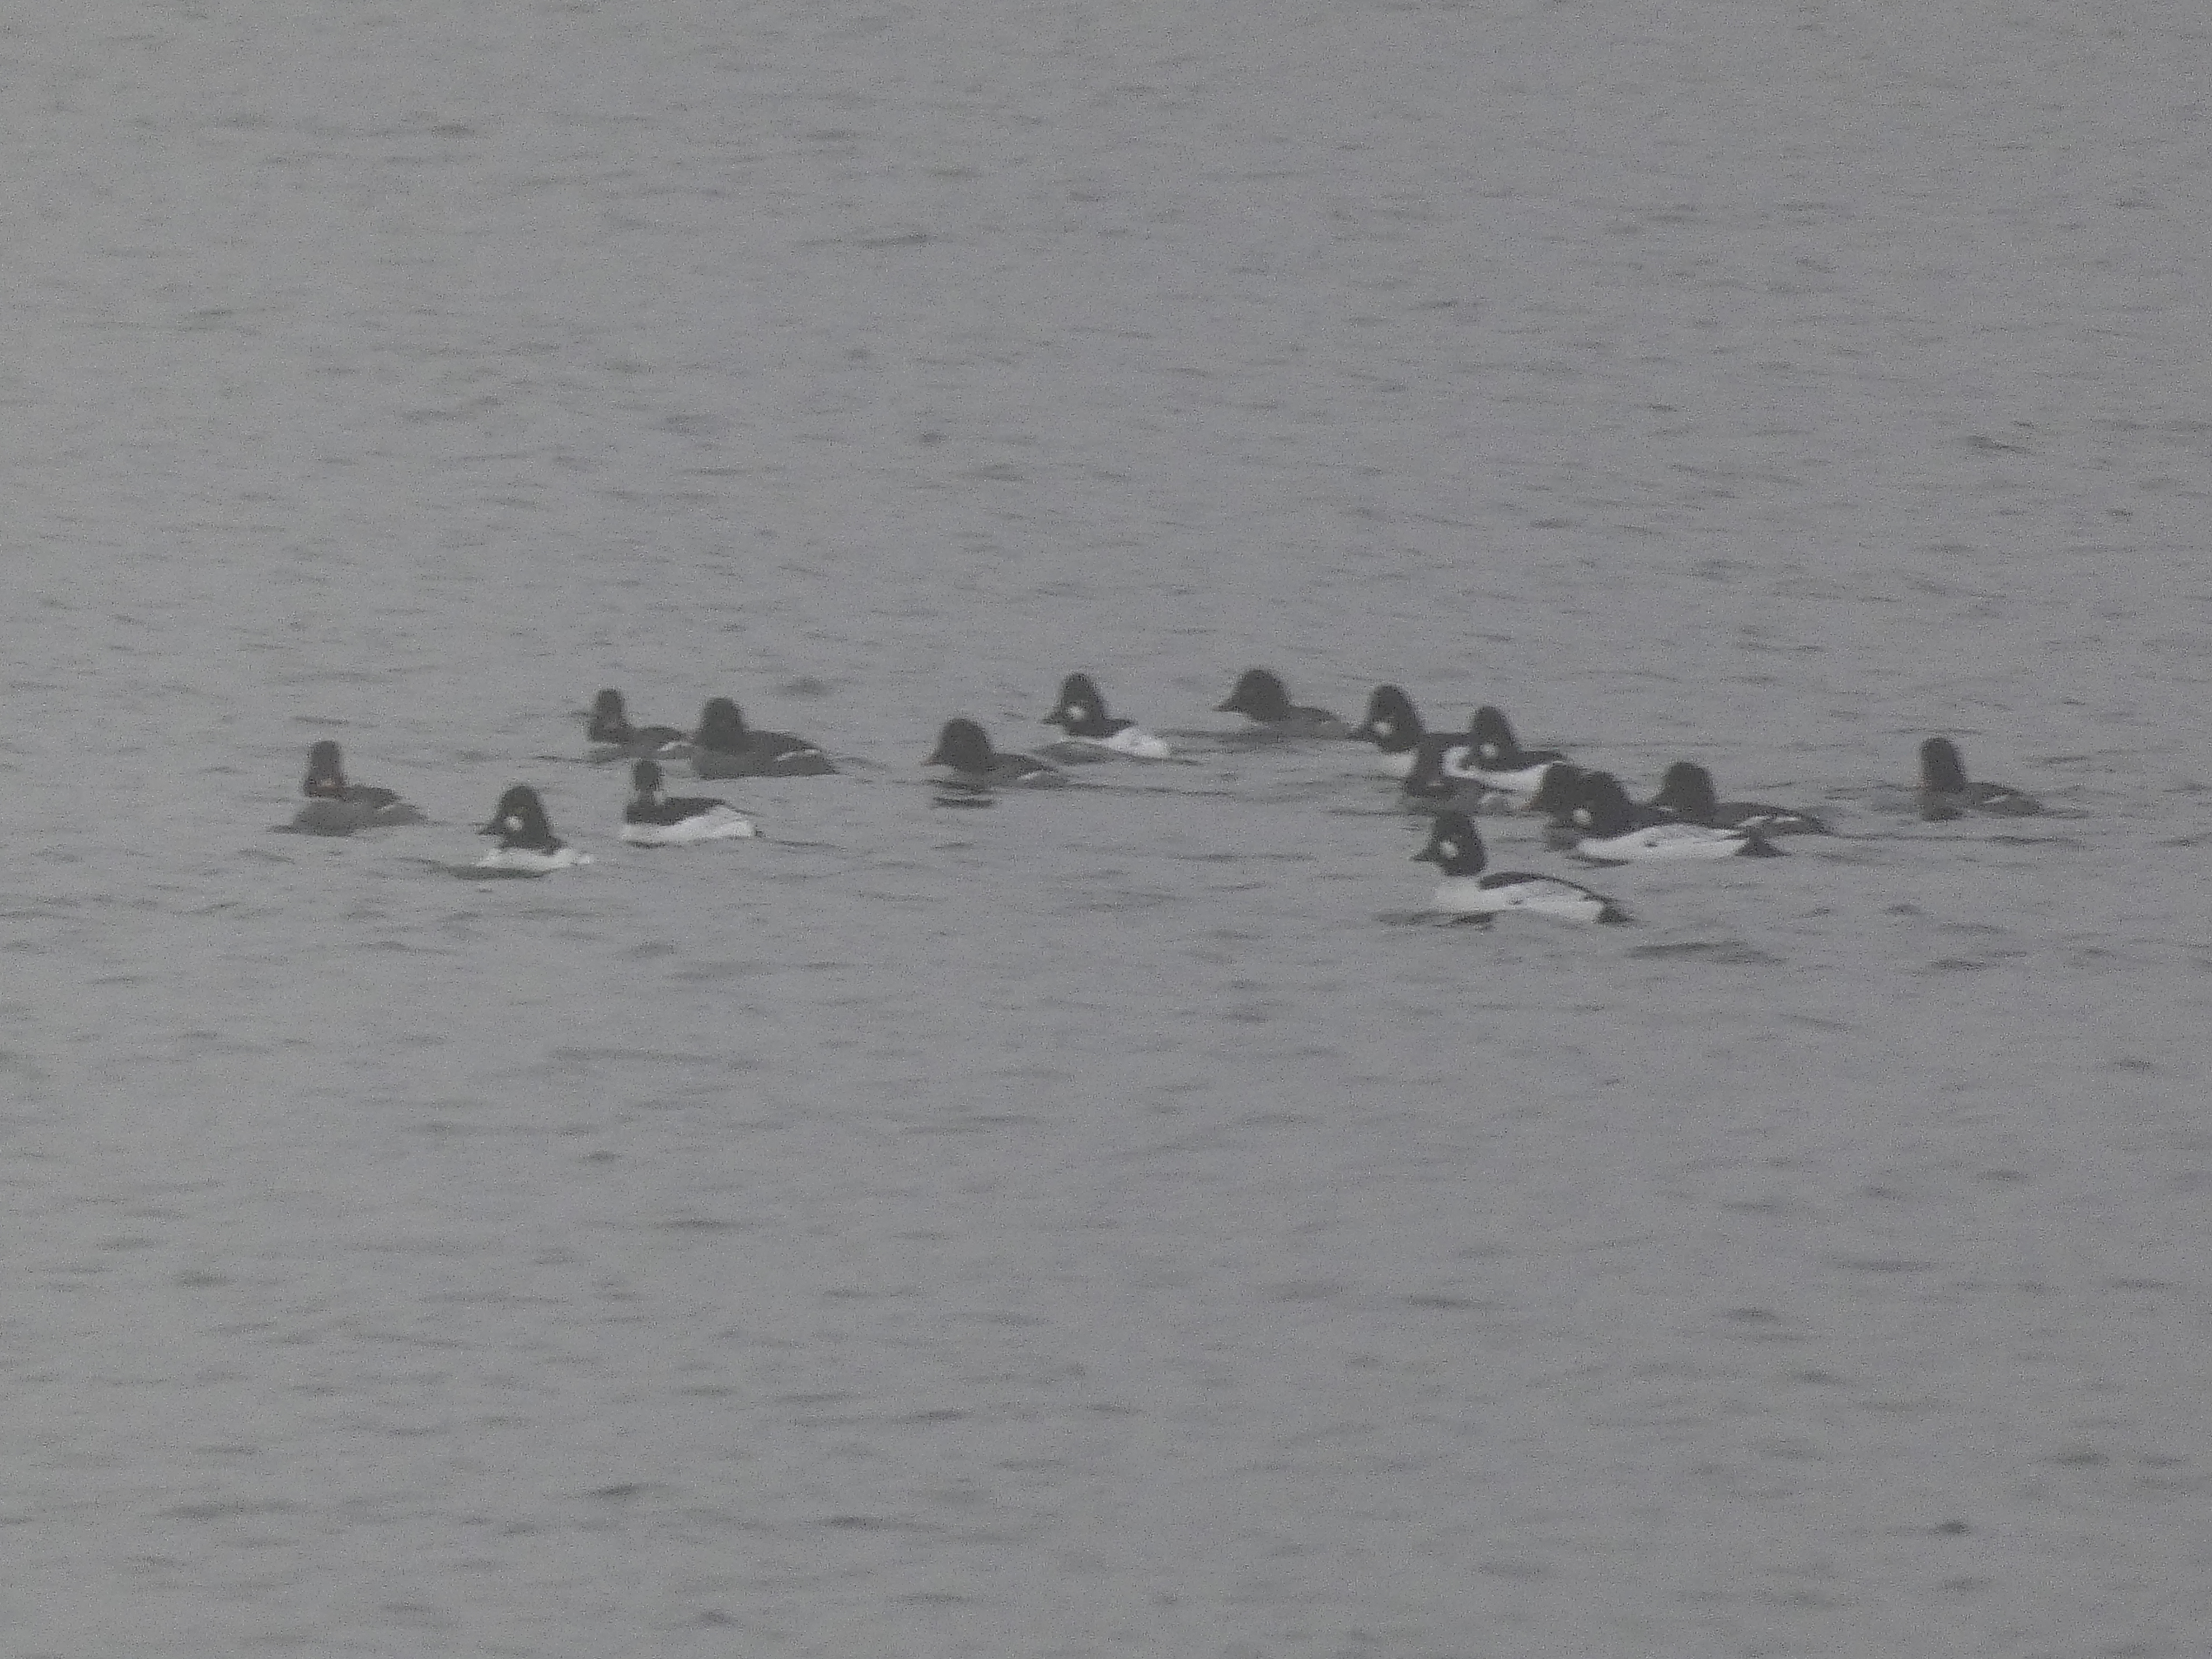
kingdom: Animalia
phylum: Chordata
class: Aves
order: Anseriformes
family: Anatidae
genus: Bucephala
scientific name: Bucephala clangula
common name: Hvinand
